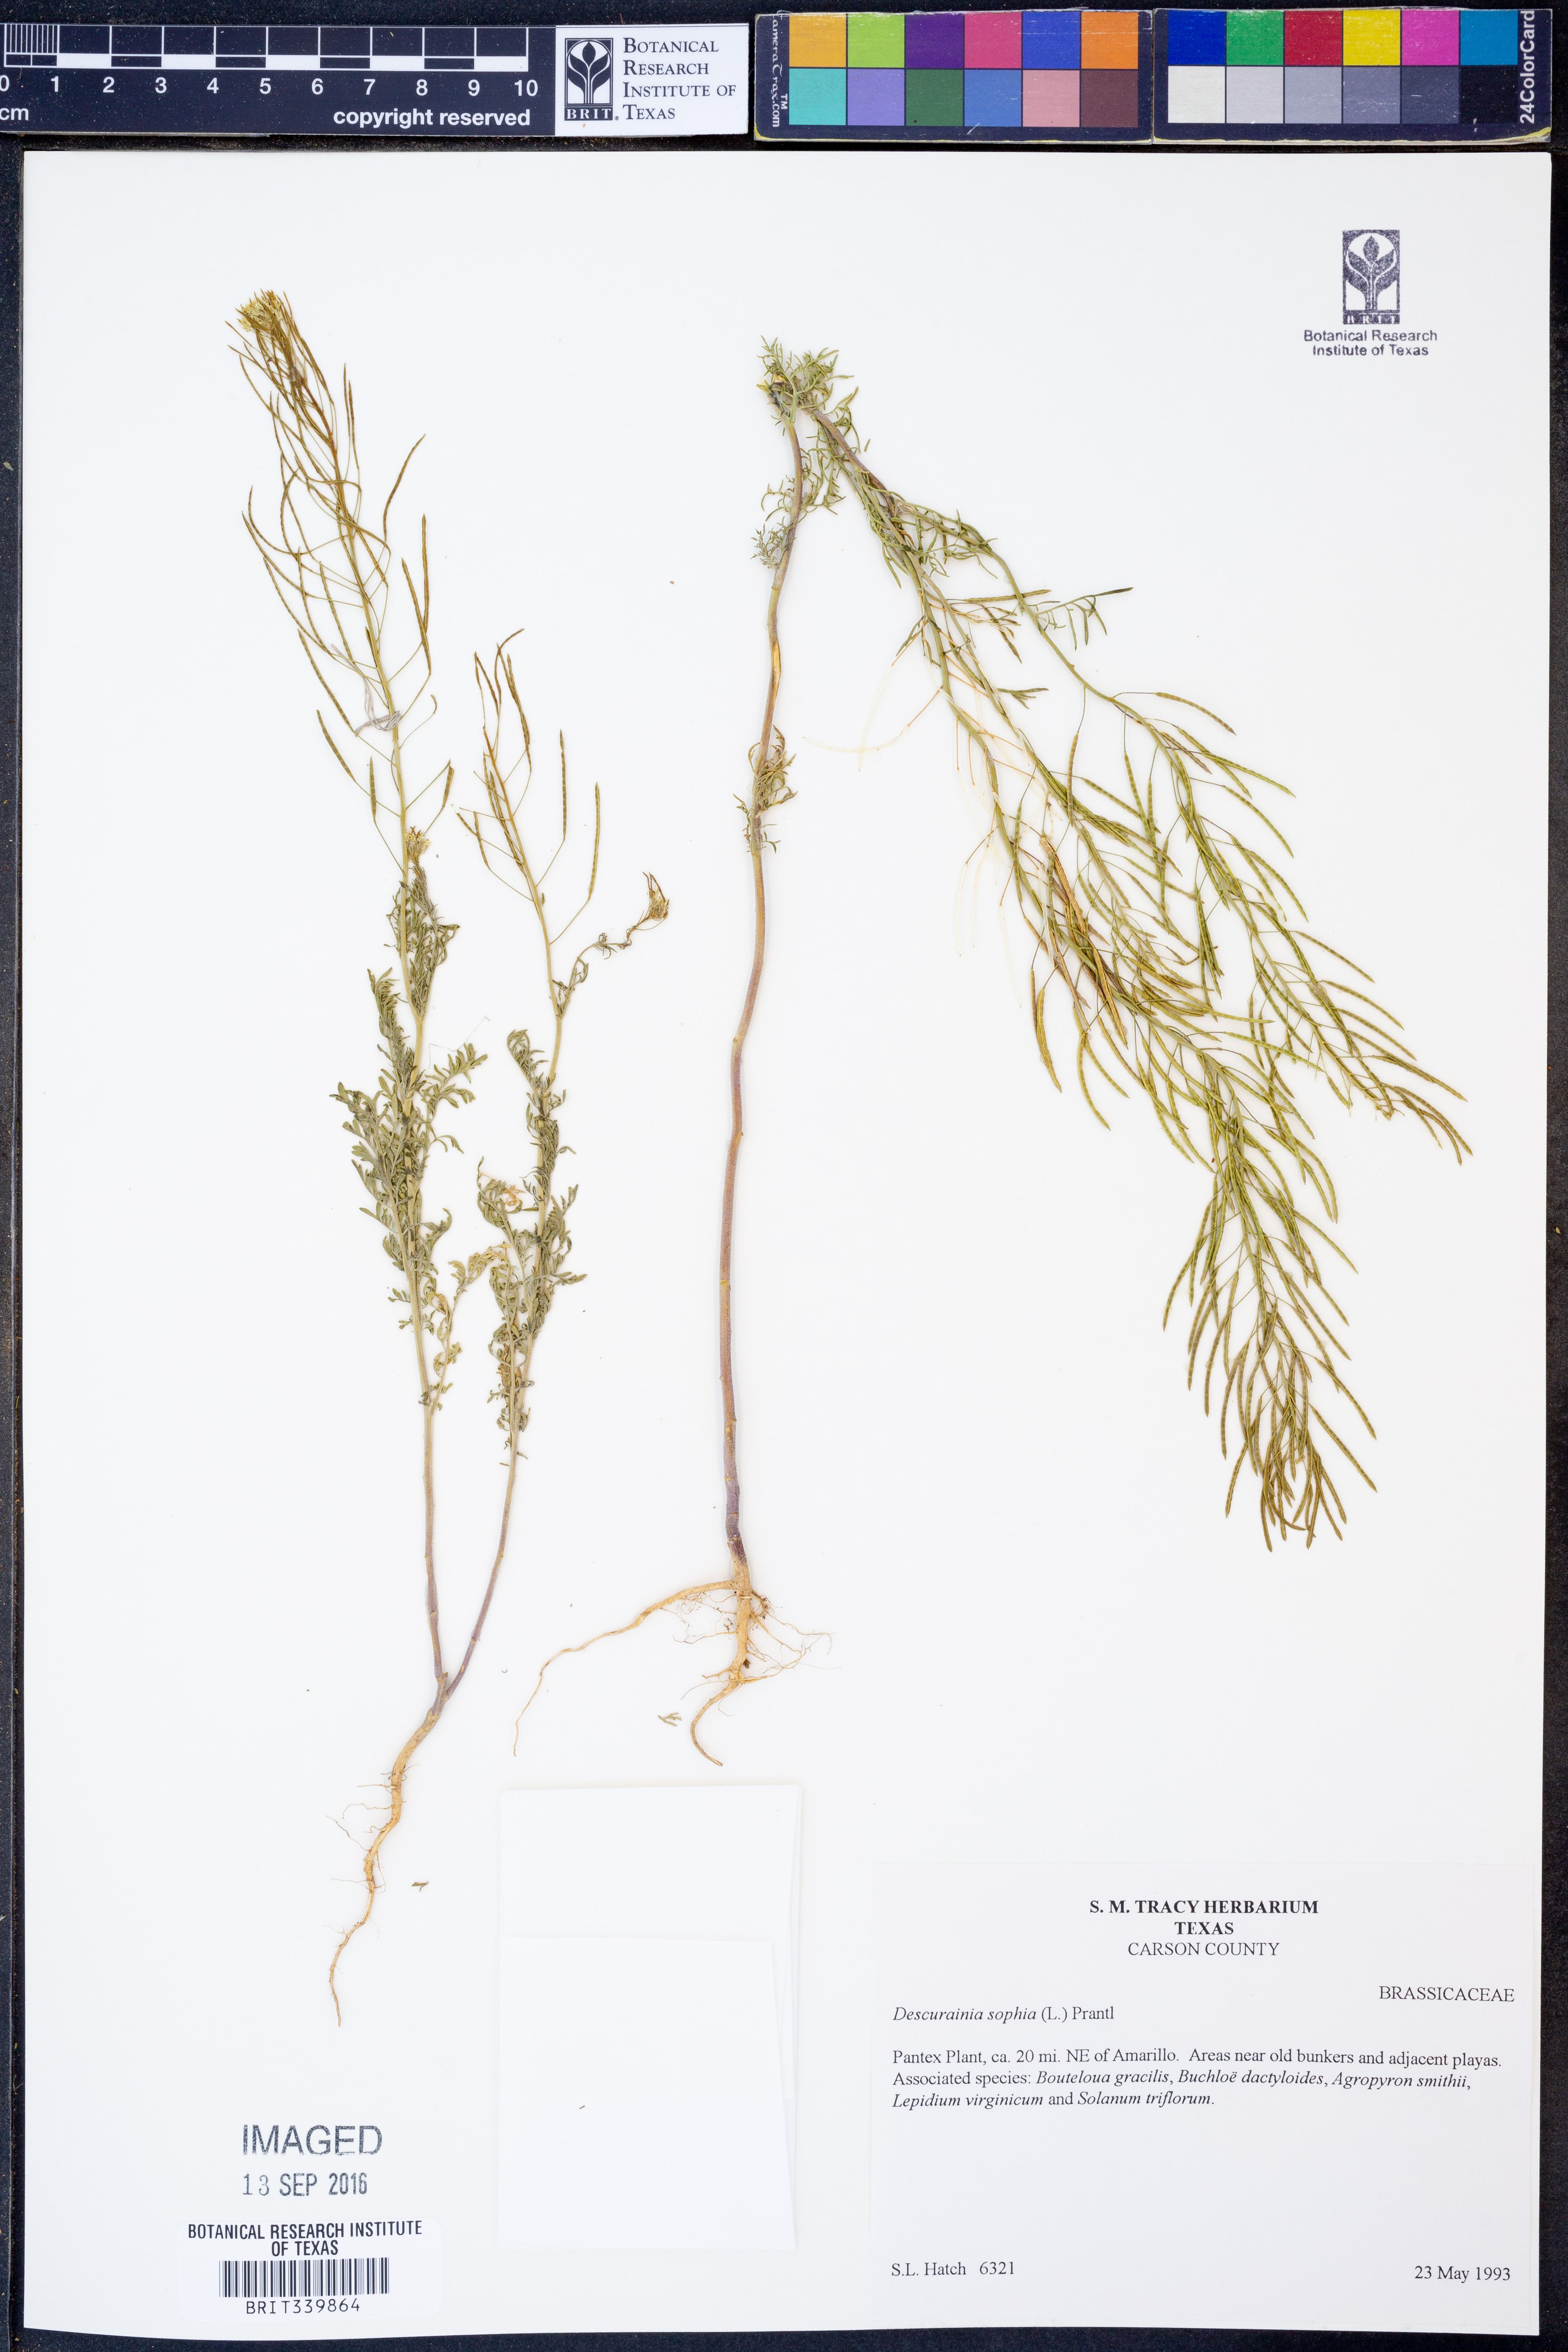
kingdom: Plantae
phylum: Tracheophyta
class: Magnoliopsida
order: Brassicales
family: Brassicaceae
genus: Descurainia
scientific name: Descurainia sophia
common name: Flixweed
